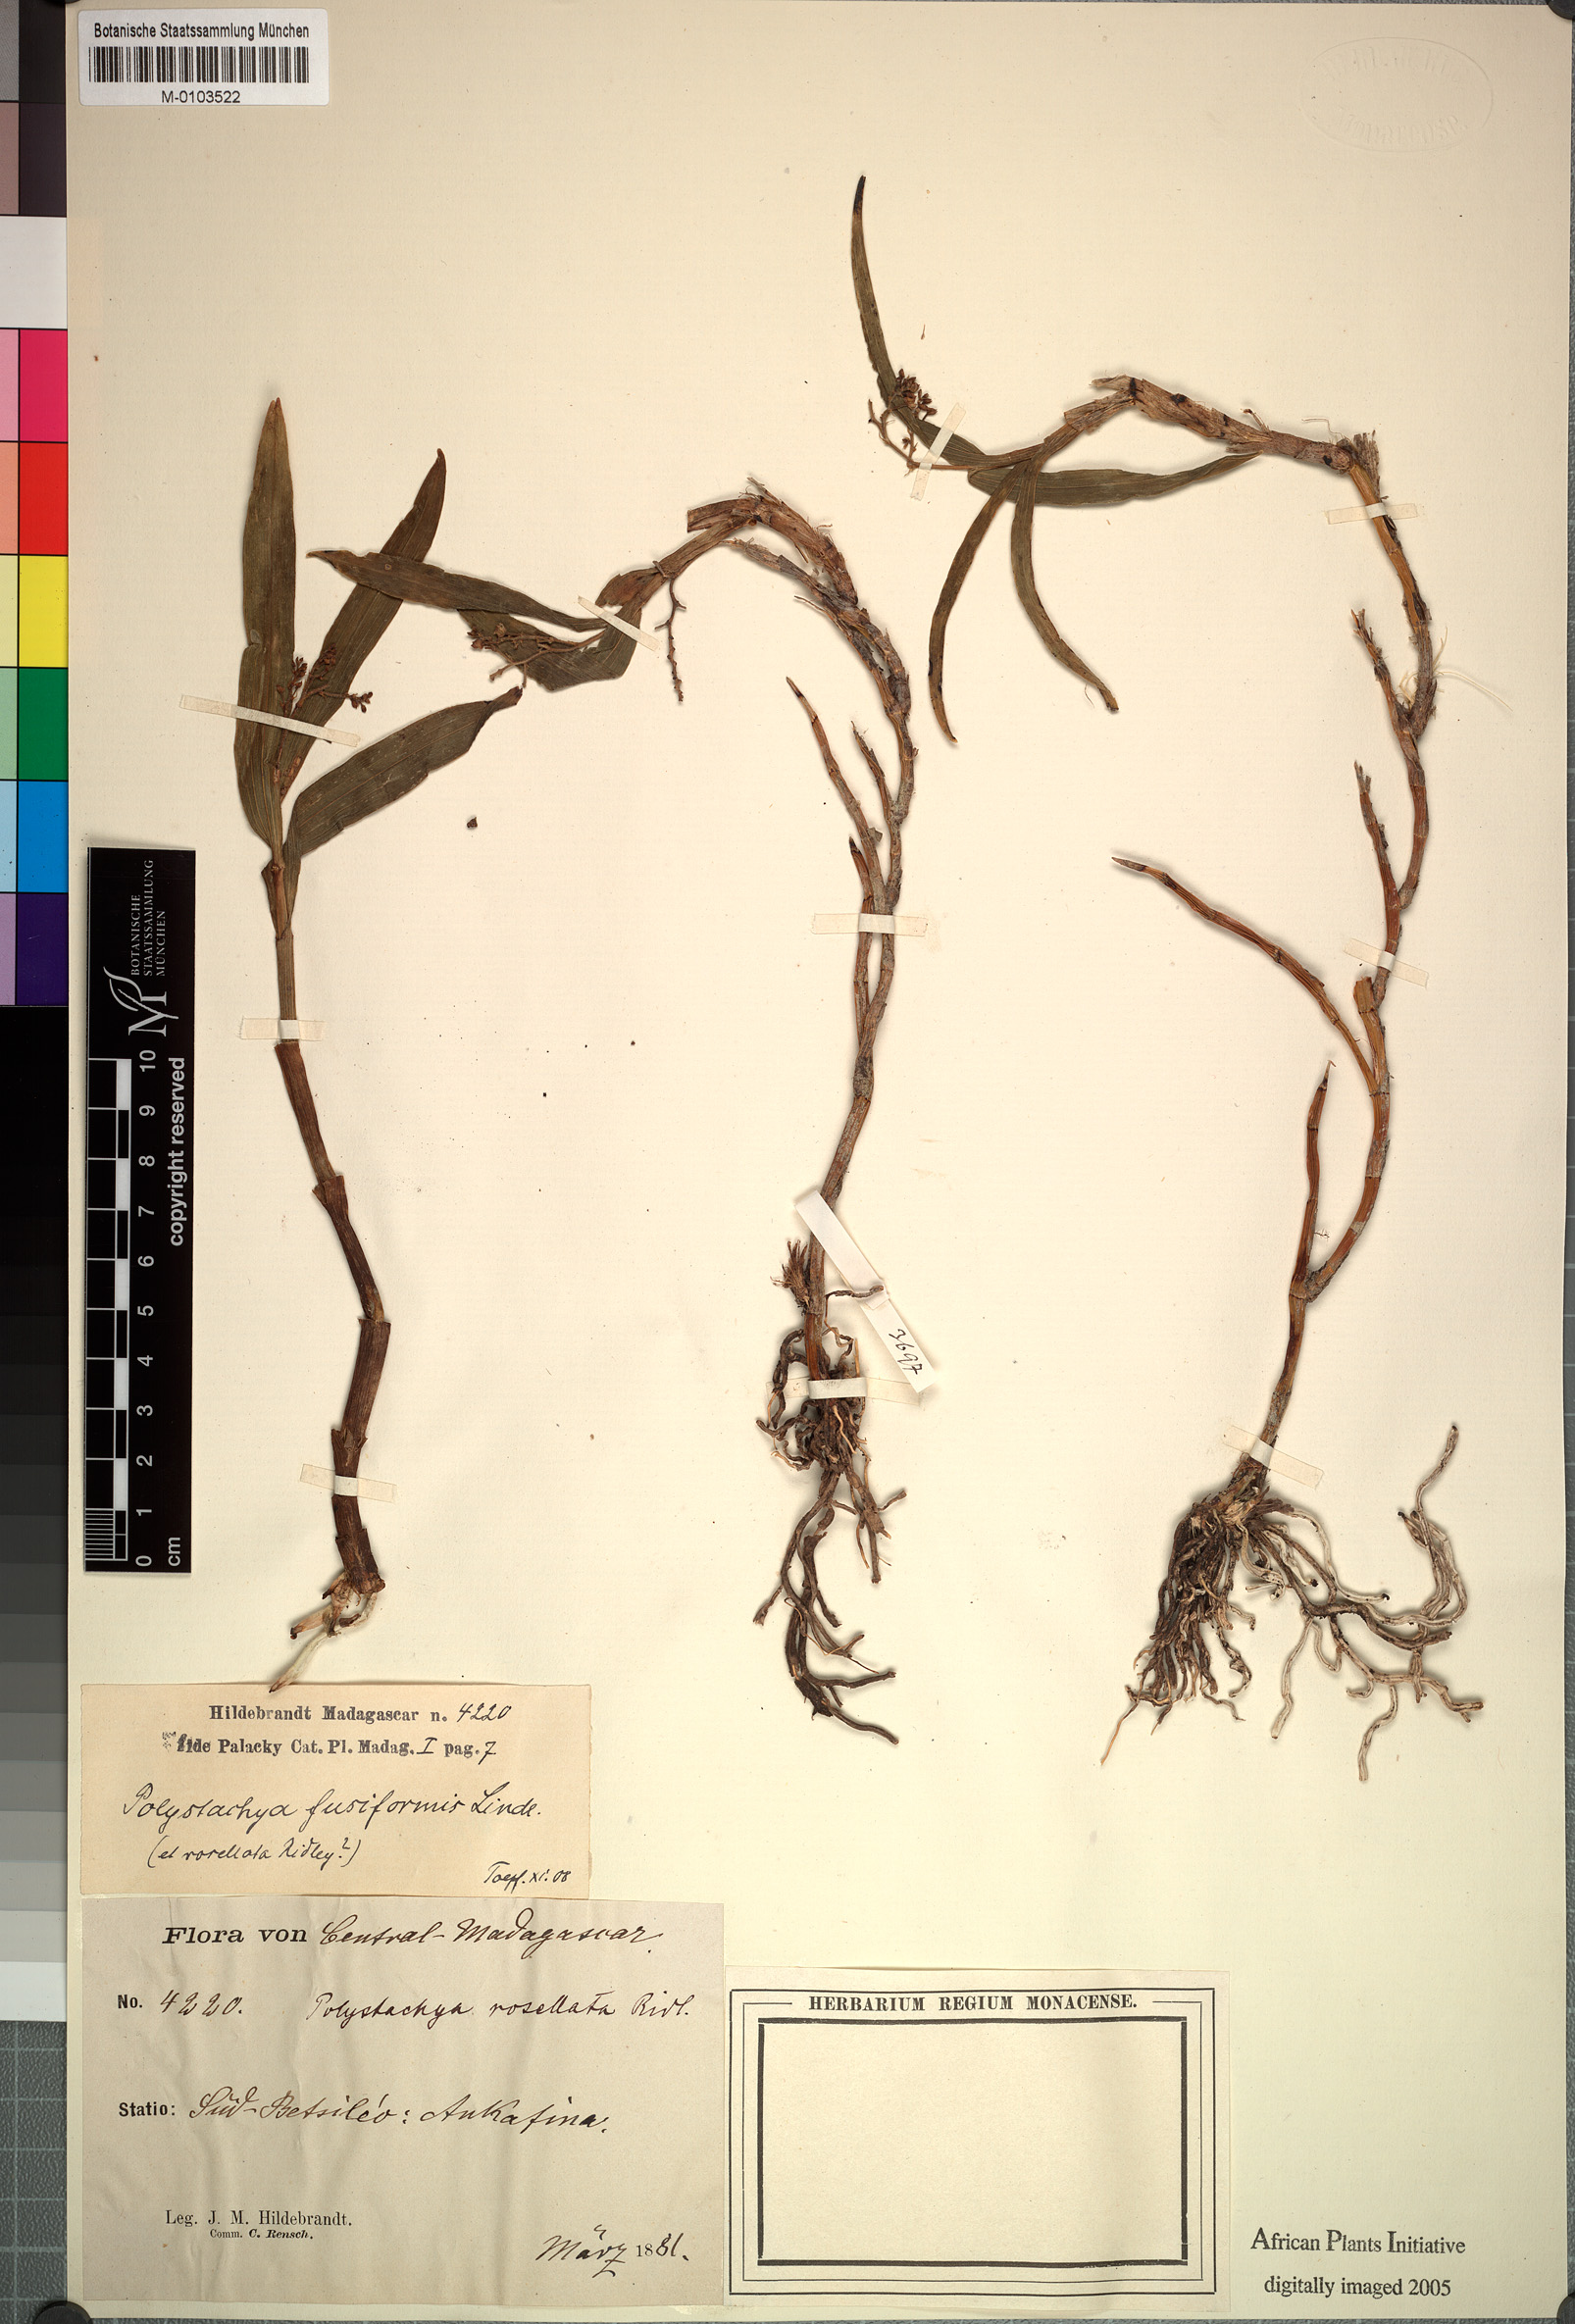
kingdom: Plantae
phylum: Tracheophyta
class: Liliopsida
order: Asparagales
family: Orchidaceae
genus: Polystachya
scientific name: Polystachya rosellata
